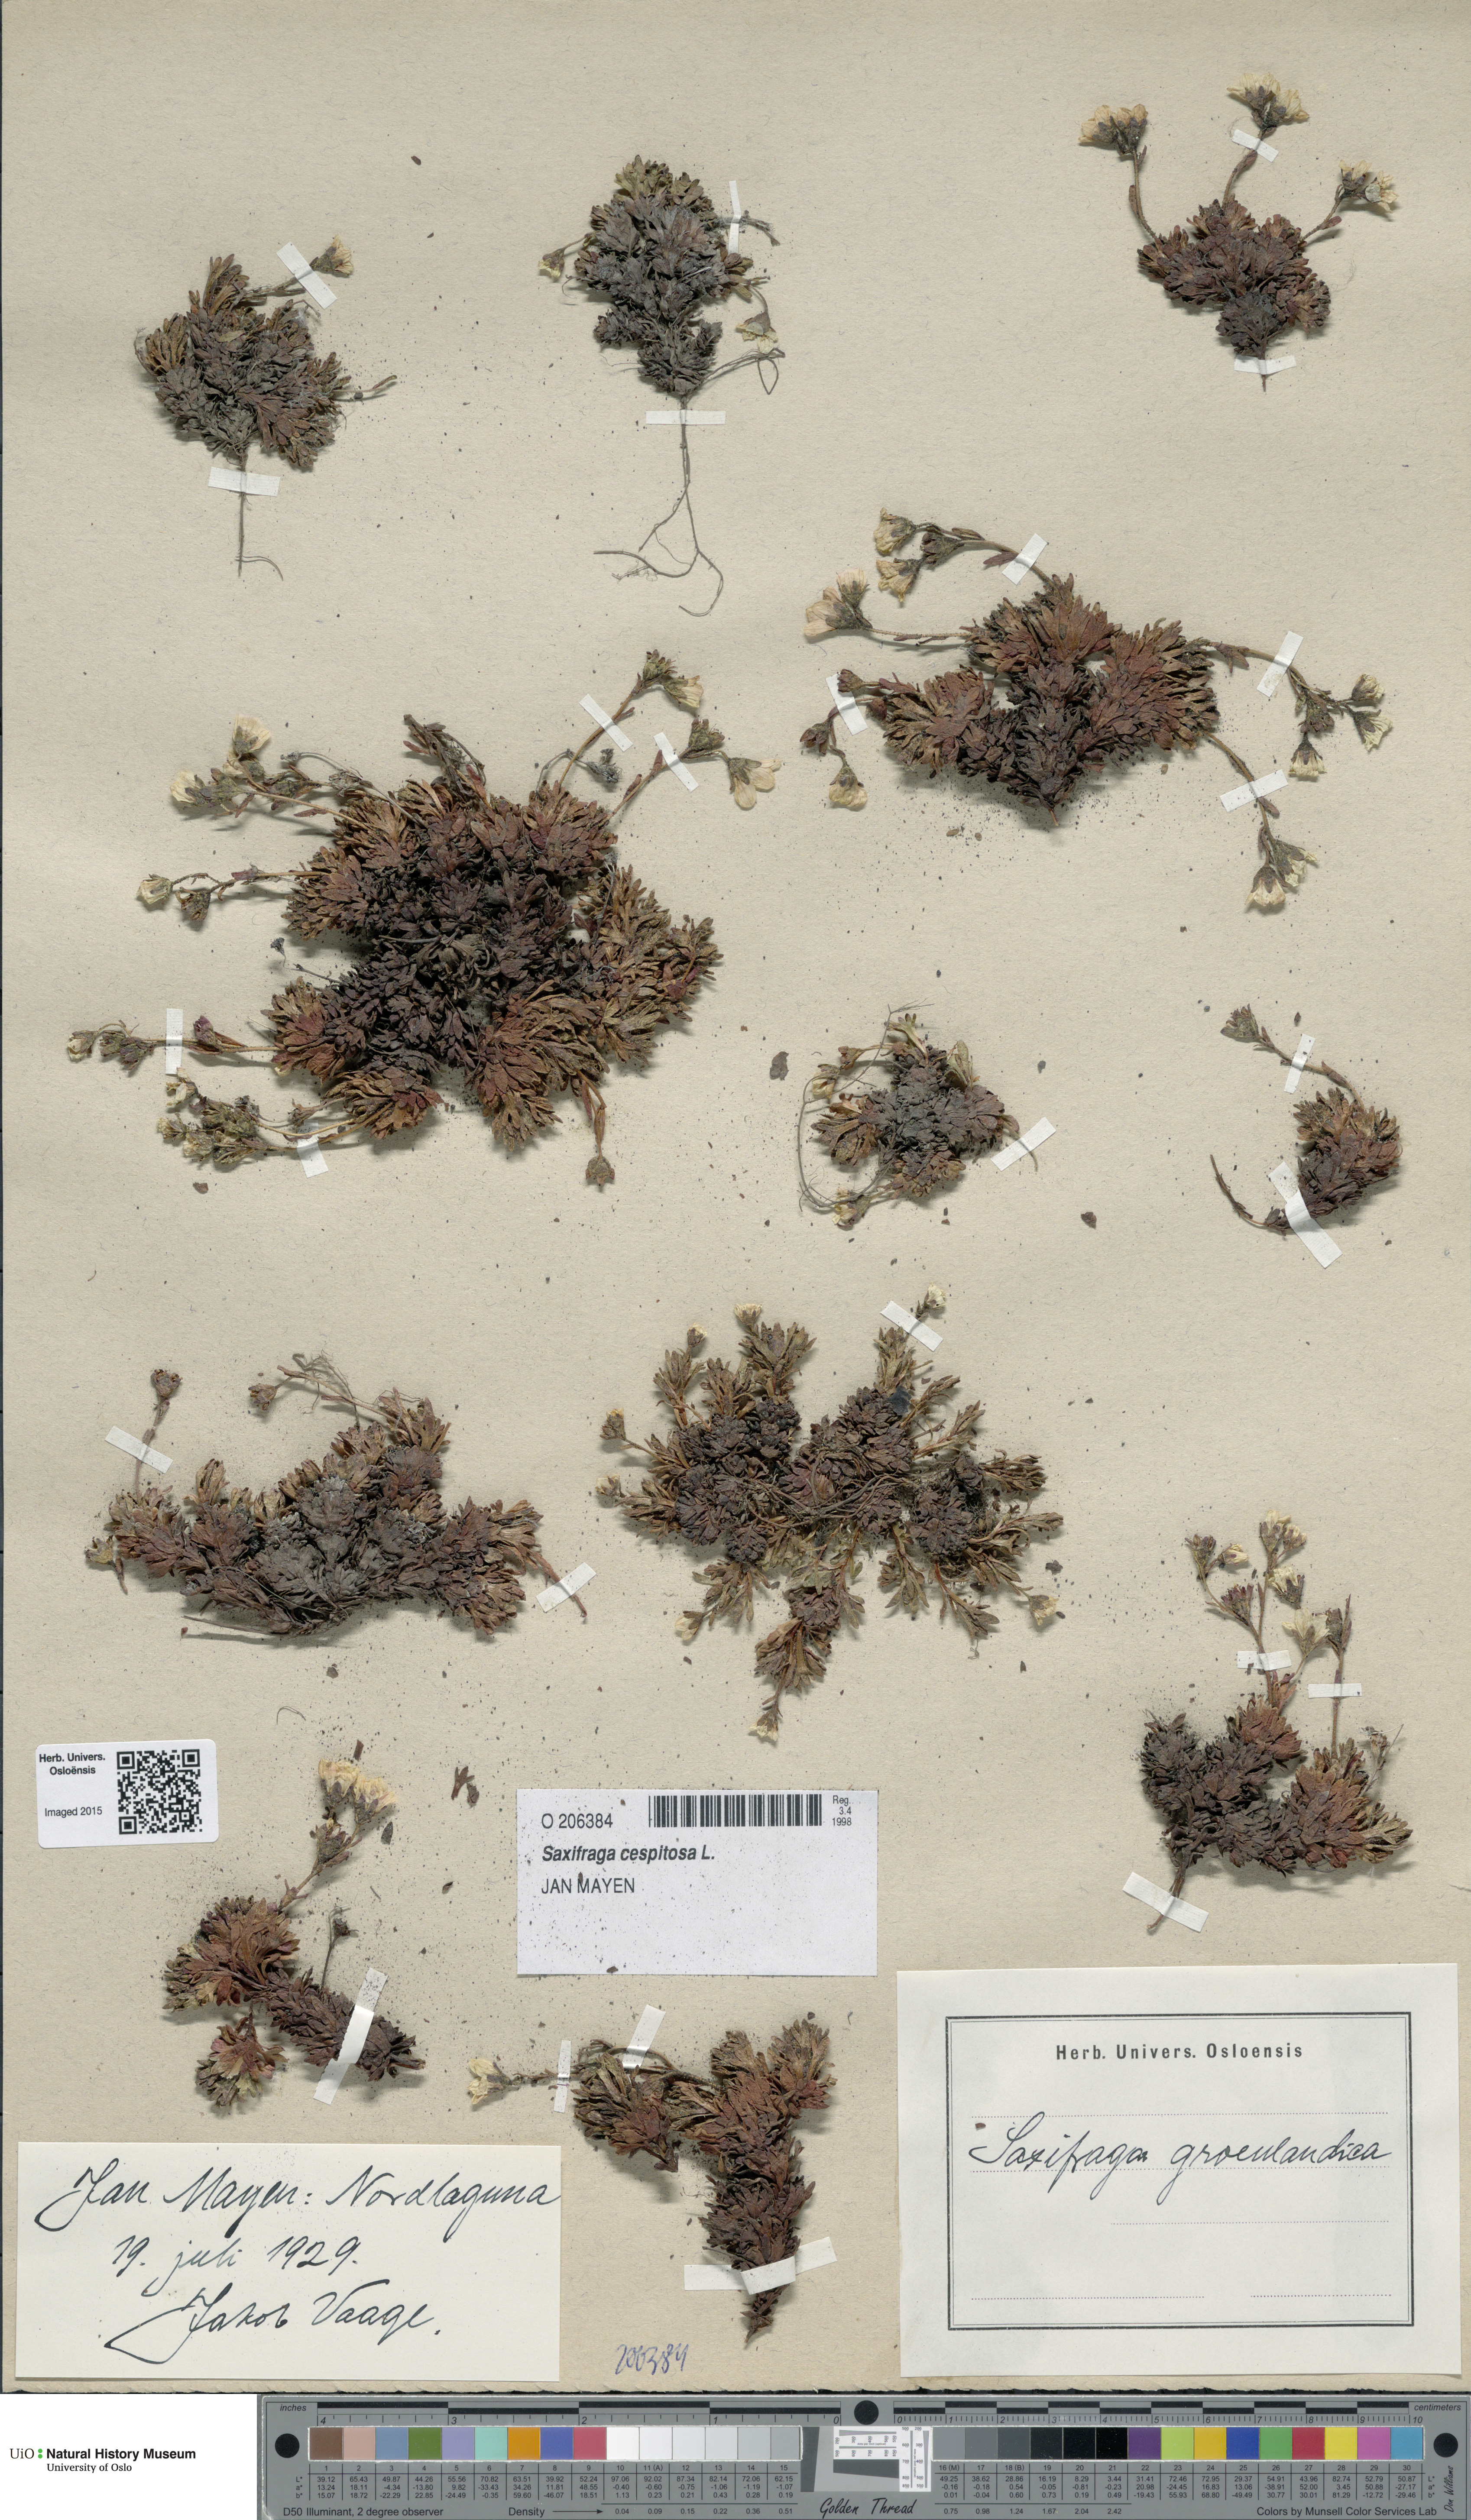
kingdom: Plantae
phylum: Tracheophyta
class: Magnoliopsida
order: Saxifragales
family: Saxifragaceae
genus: Saxifraga
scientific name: Saxifraga cespitosa
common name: Tufted saxifrage
